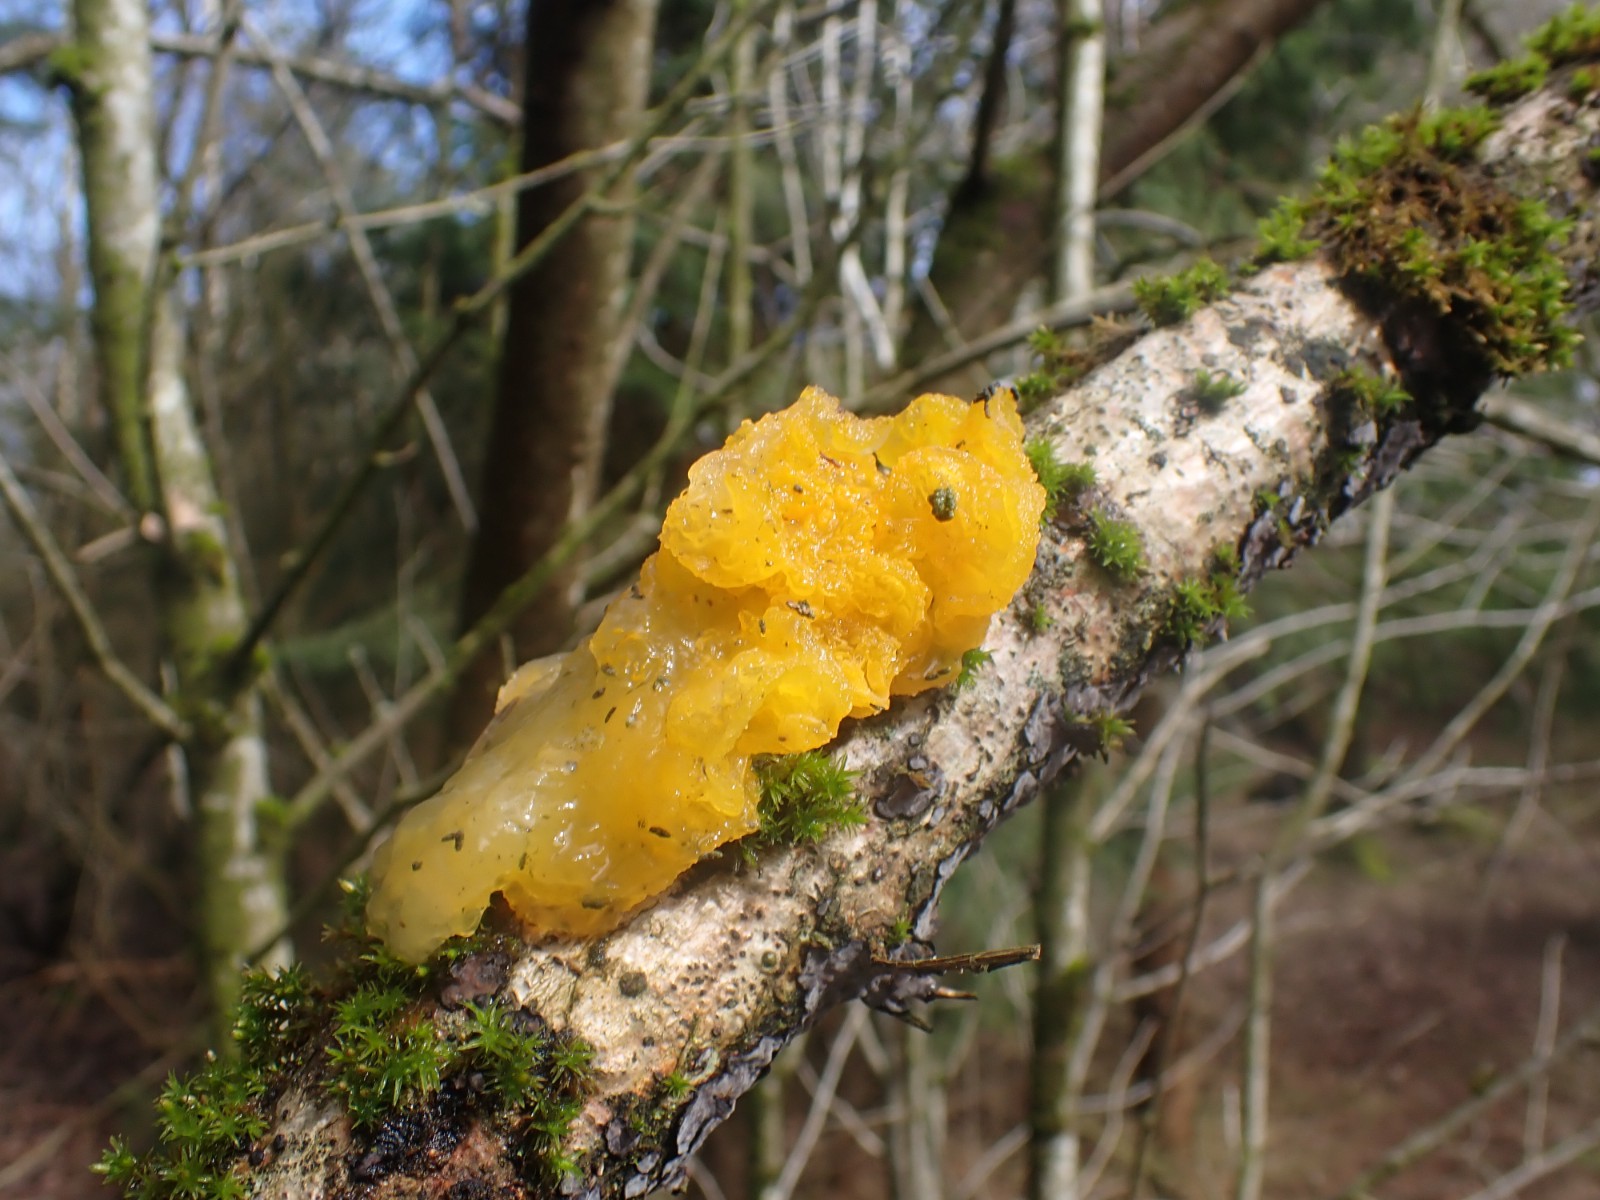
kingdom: Fungi
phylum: Basidiomycota
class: Tremellomycetes
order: Tremellales
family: Tremellaceae
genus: Tremella
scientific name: Tremella mesenterica
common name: gul bævresvamp
